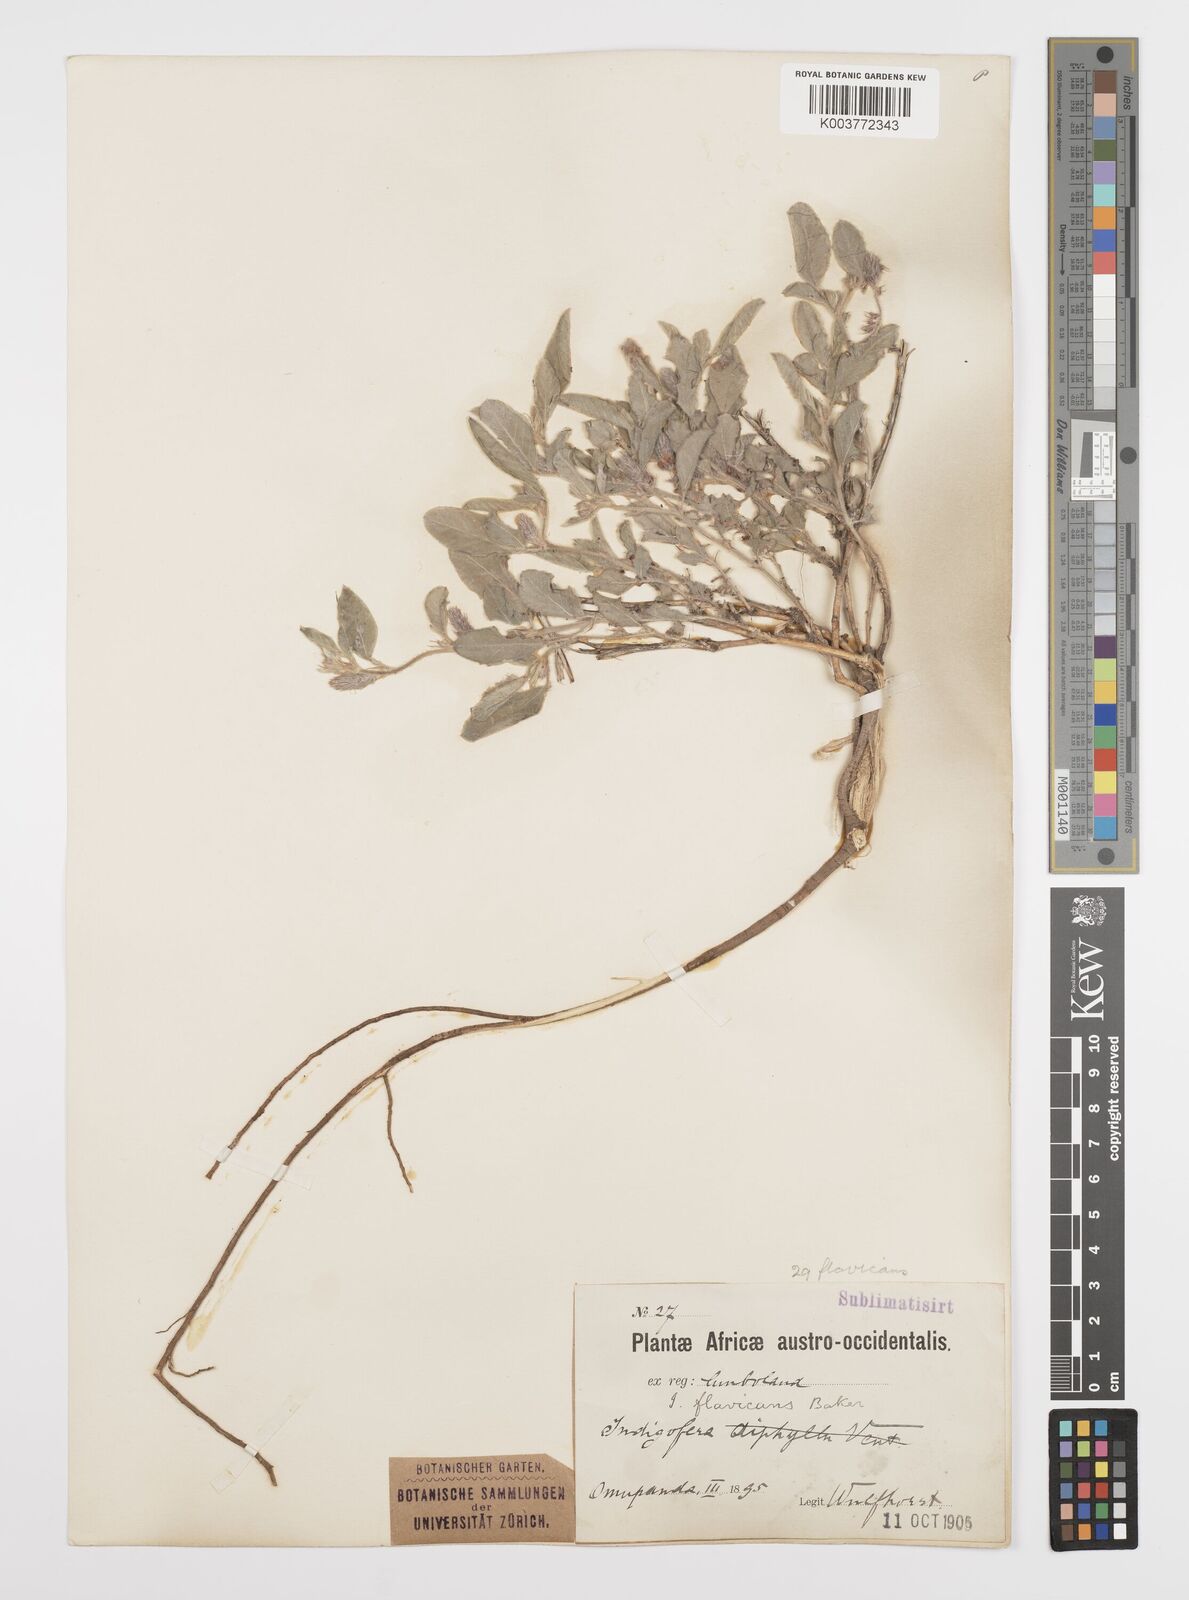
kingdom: Plantae
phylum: Tracheophyta
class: Magnoliopsida
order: Fabales
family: Fabaceae
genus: Indigofera
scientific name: Indigofera flavicans
